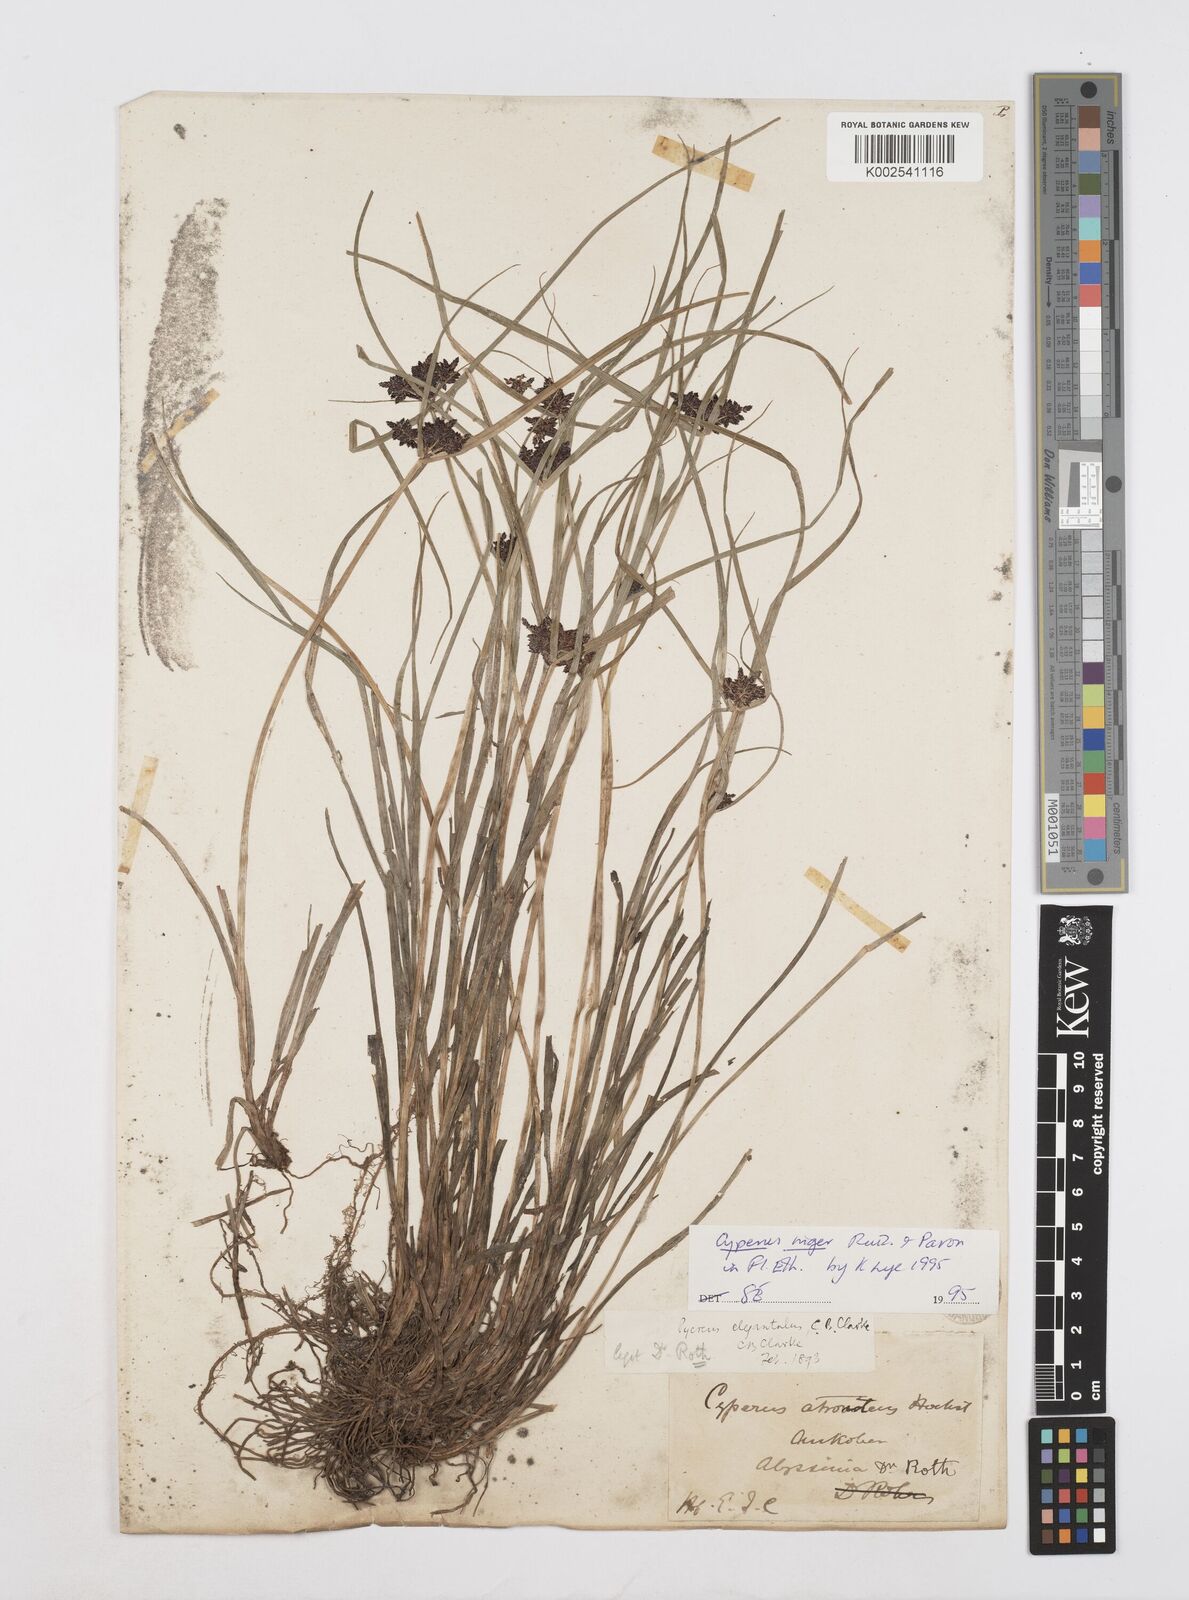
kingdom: Plantae
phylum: Tracheophyta
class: Liliopsida
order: Poales
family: Cyperaceae
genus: Cyperus
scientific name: Cyperus elegantulus
